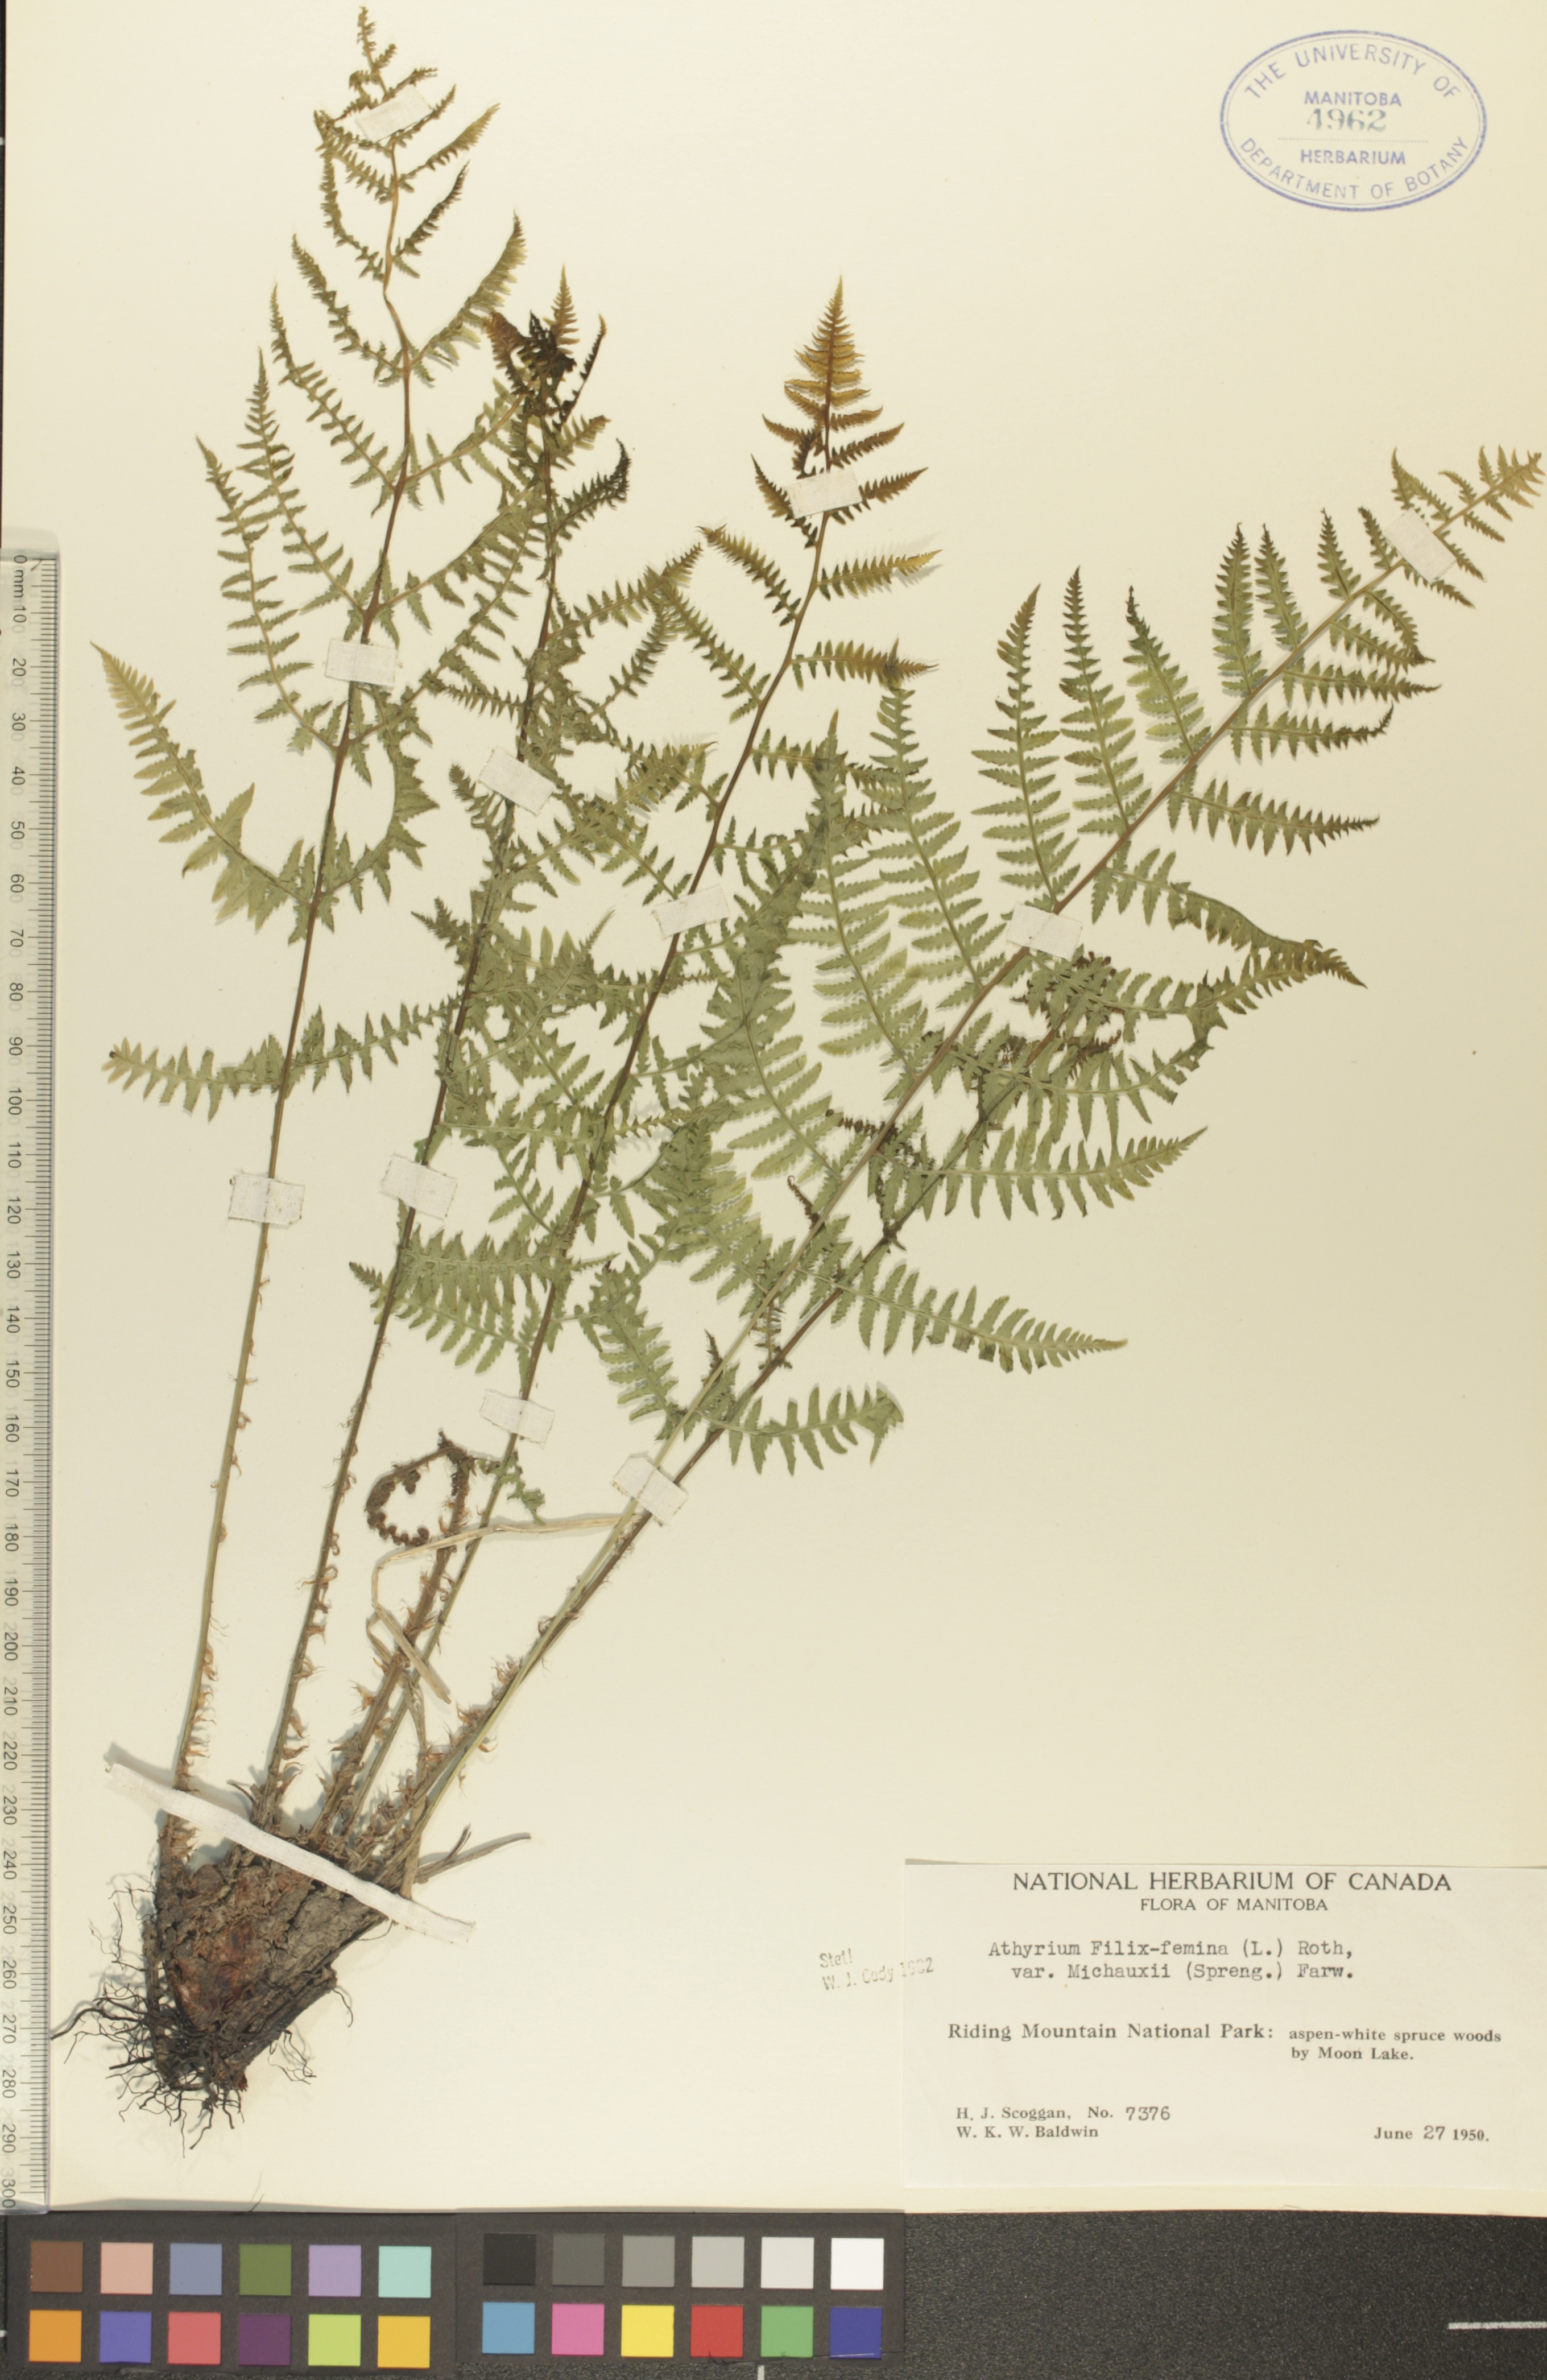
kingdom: Plantae
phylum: Tracheophyta
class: Polypodiopsida
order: Polypodiales
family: Athyriaceae
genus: Athyrium
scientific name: Athyrium angustum
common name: Northern lady fern
